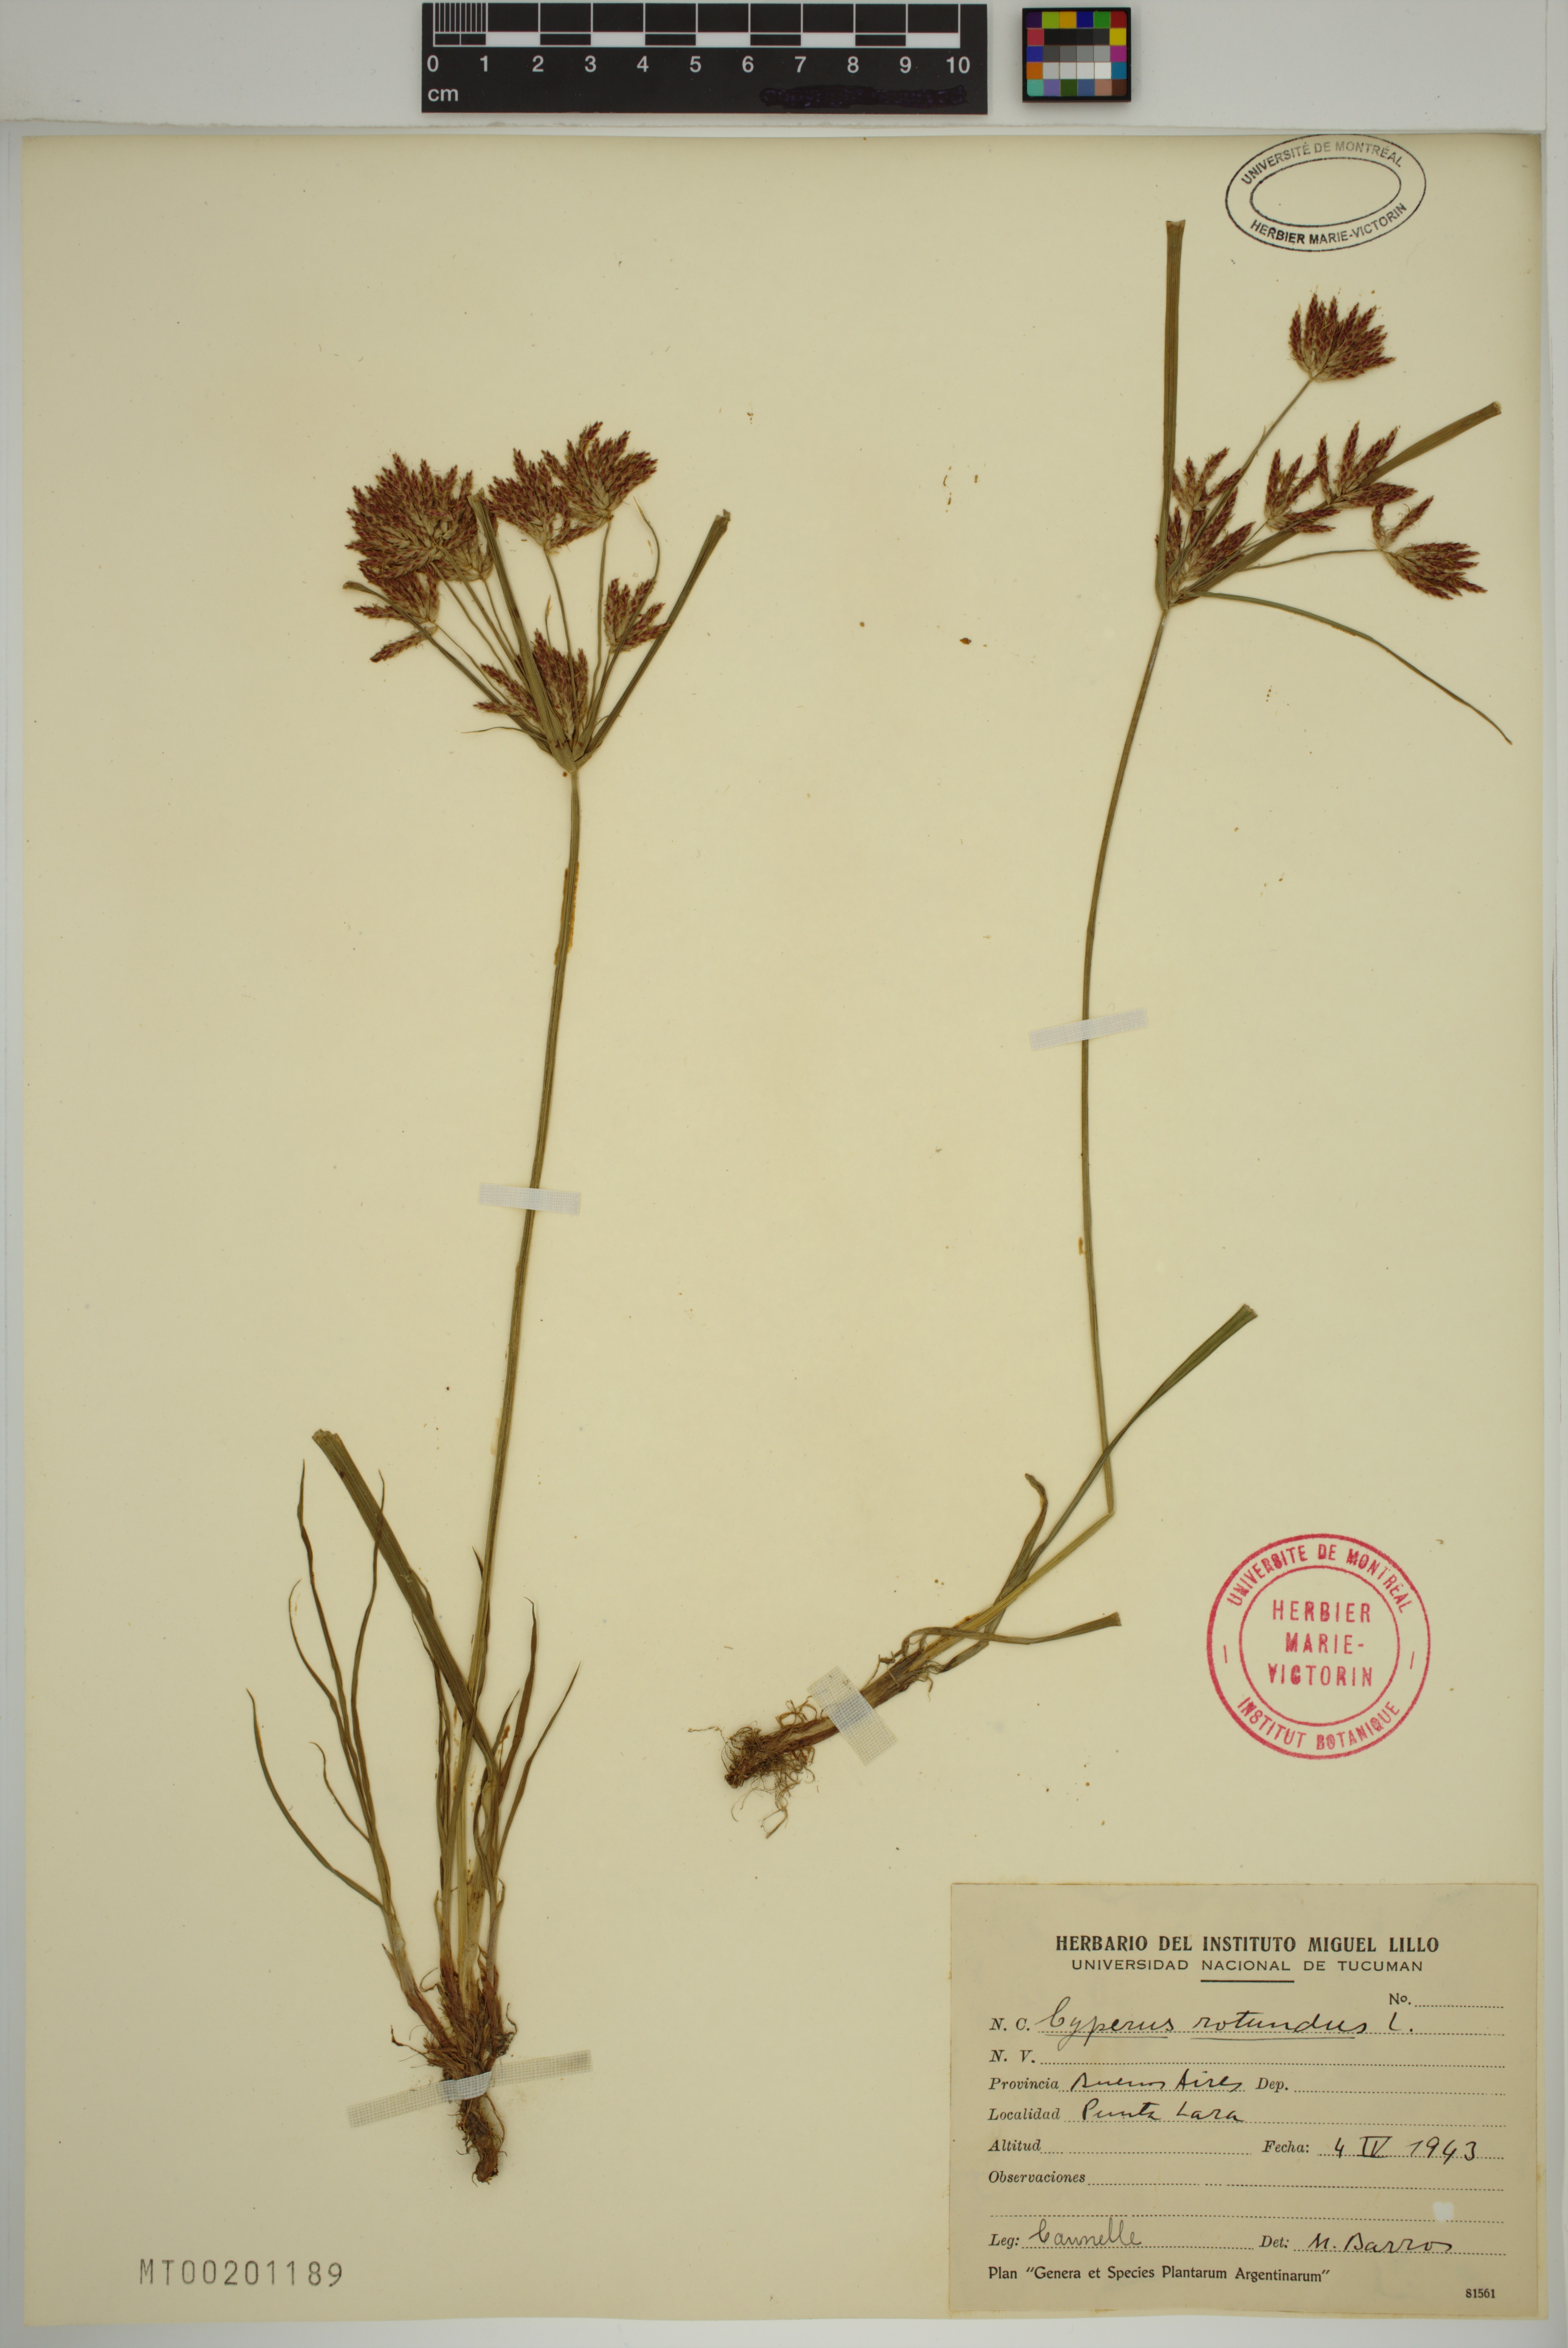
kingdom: Plantae
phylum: Tracheophyta
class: Liliopsida
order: Poales
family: Cyperaceae
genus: Cyperus
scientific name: Cyperus rotundus
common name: Nutgrass
